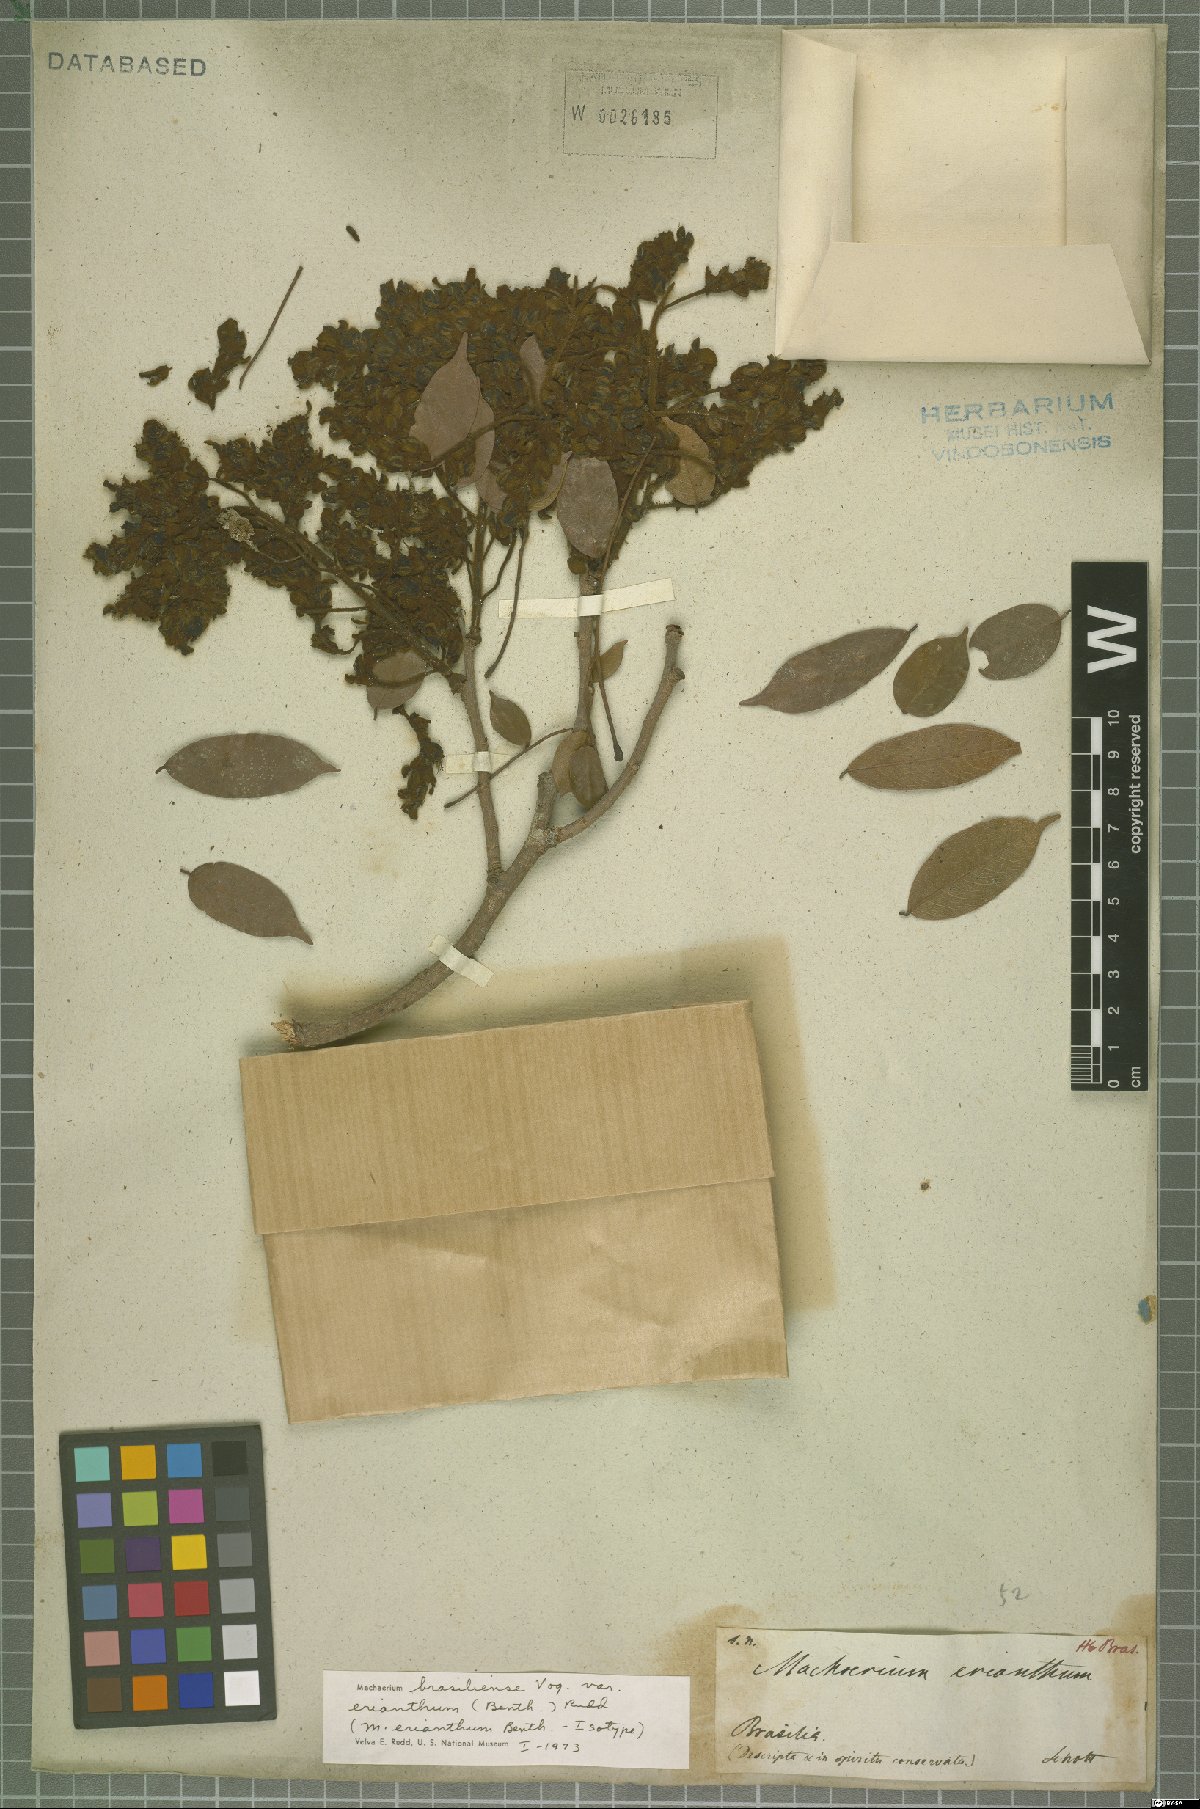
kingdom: Plantae
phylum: Tracheophyta
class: Magnoliopsida
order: Fabales
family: Fabaceae
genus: Machaerium
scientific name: Machaerium brasiliense
